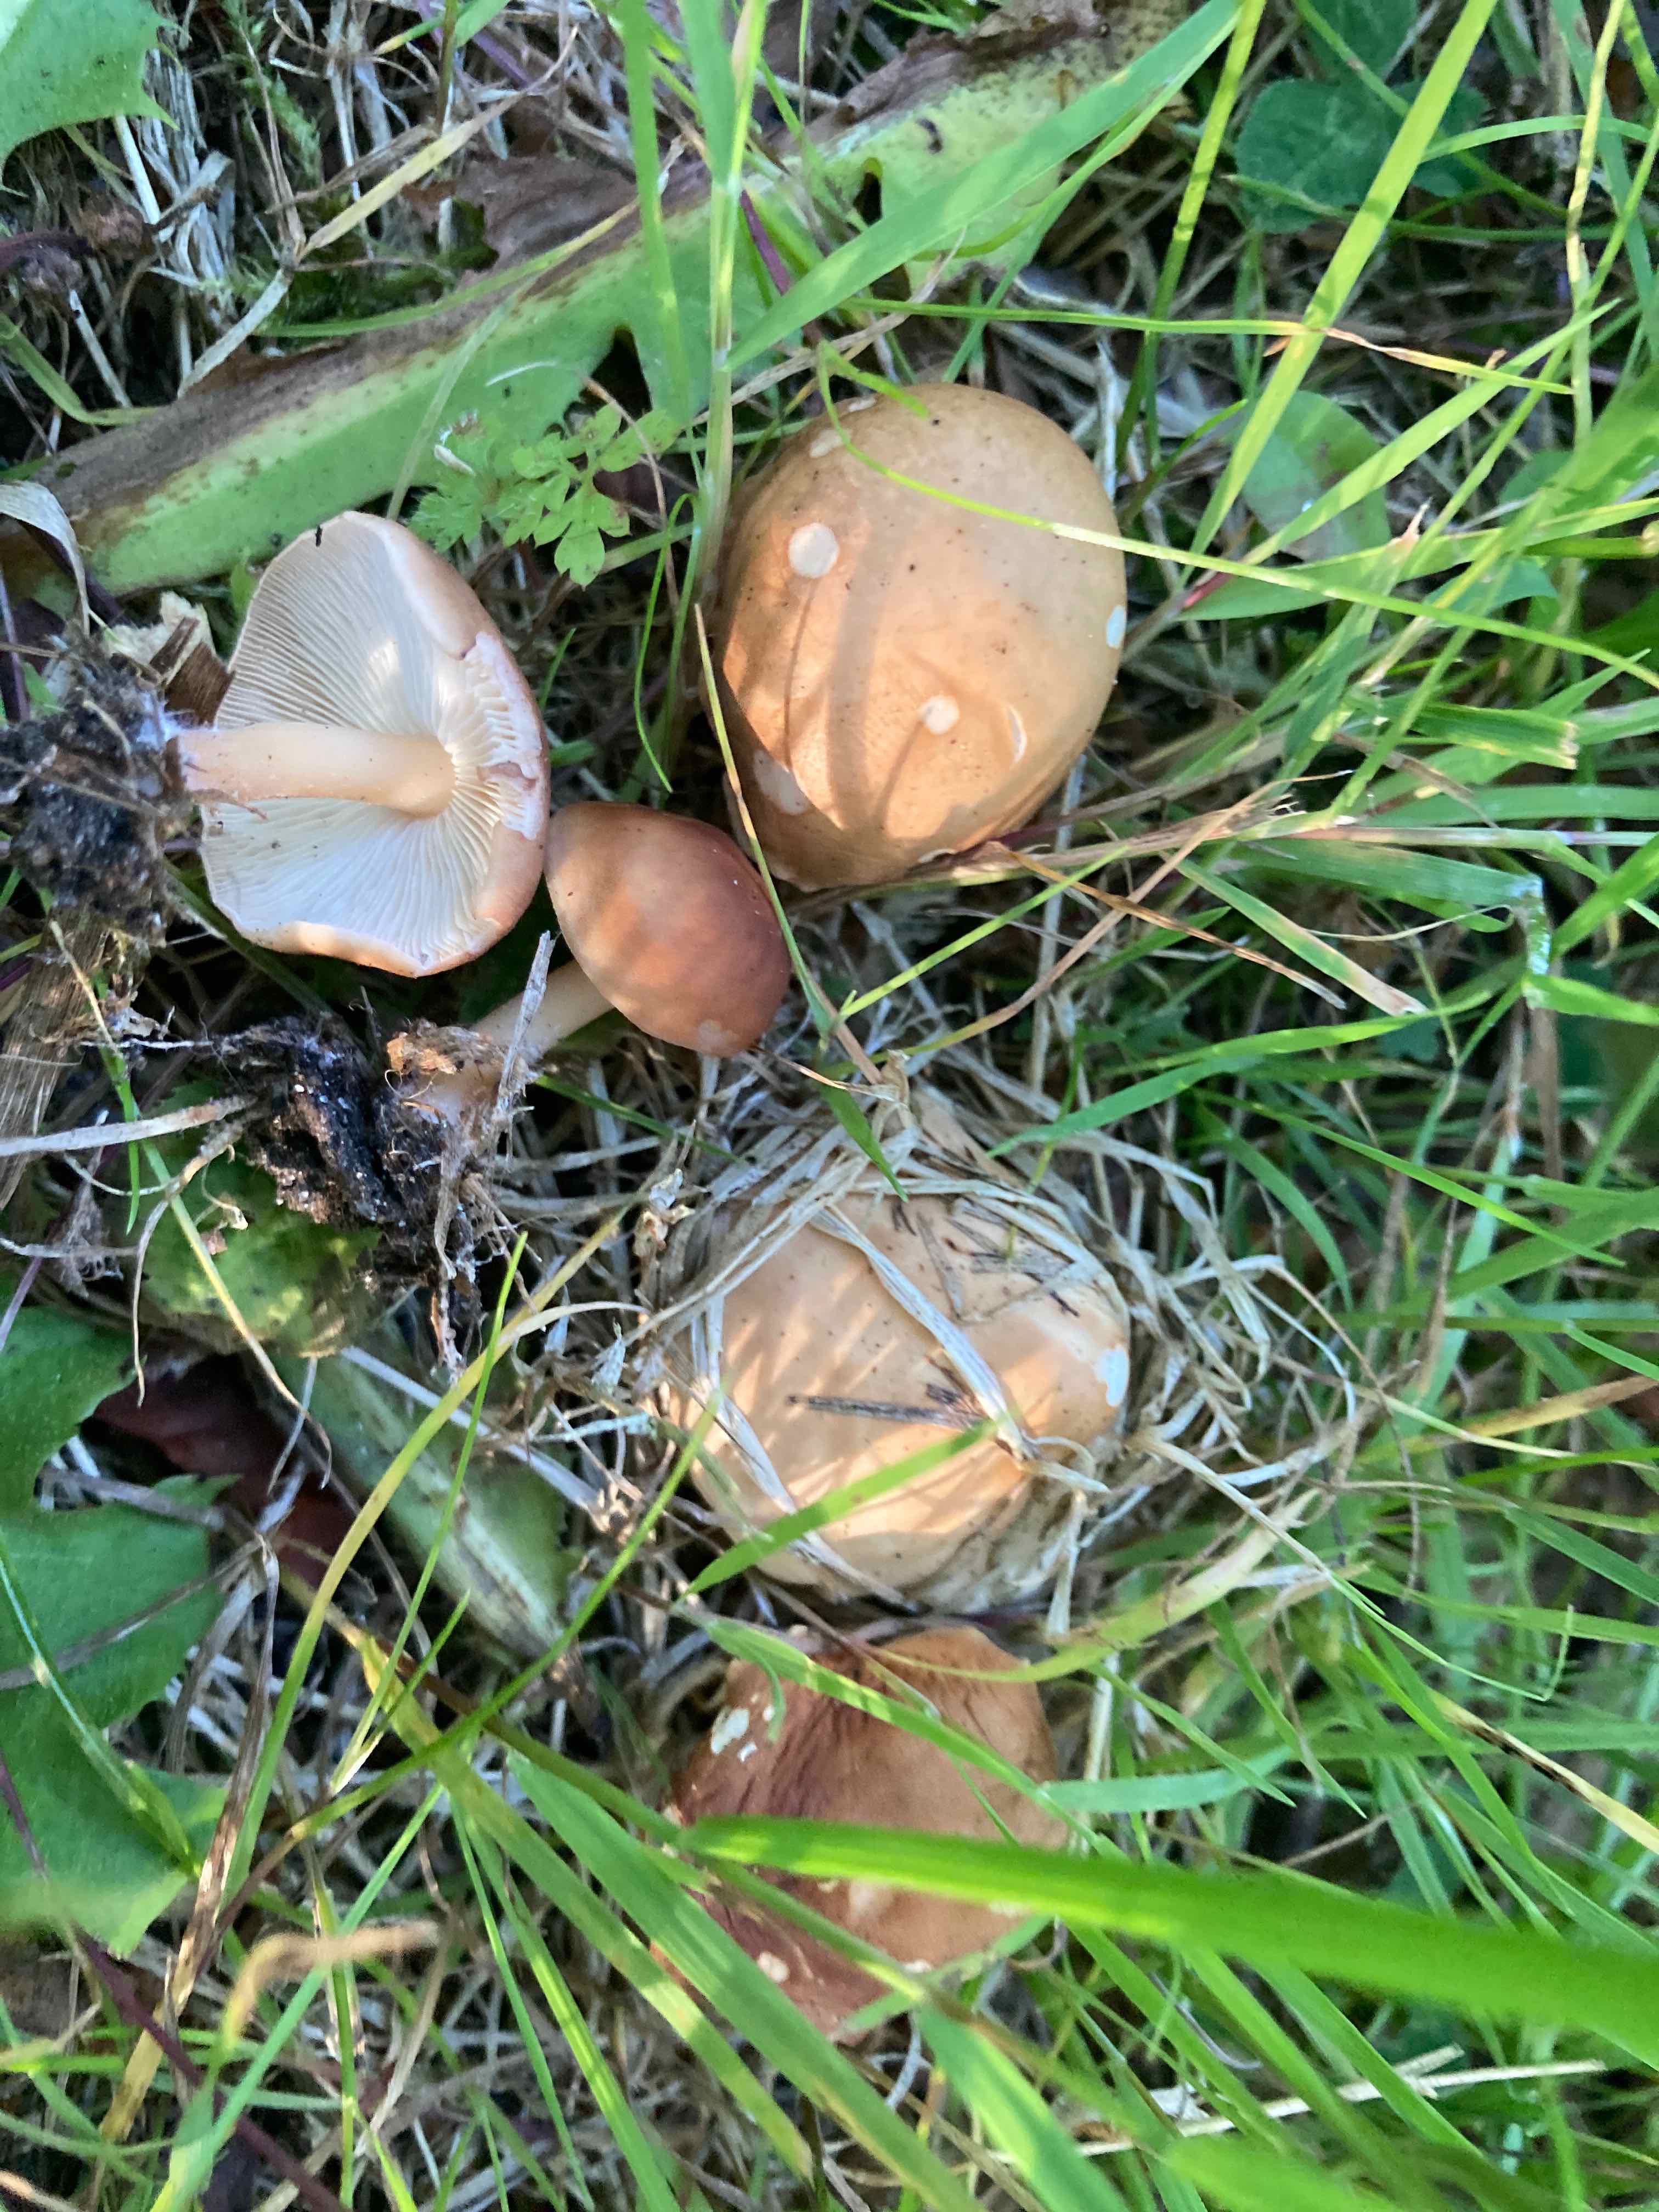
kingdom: Fungi
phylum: Basidiomycota
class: Agaricomycetes
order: Agaricales
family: Omphalotaceae
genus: Gymnopus
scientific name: Gymnopus ocior
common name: mørk fladhat
